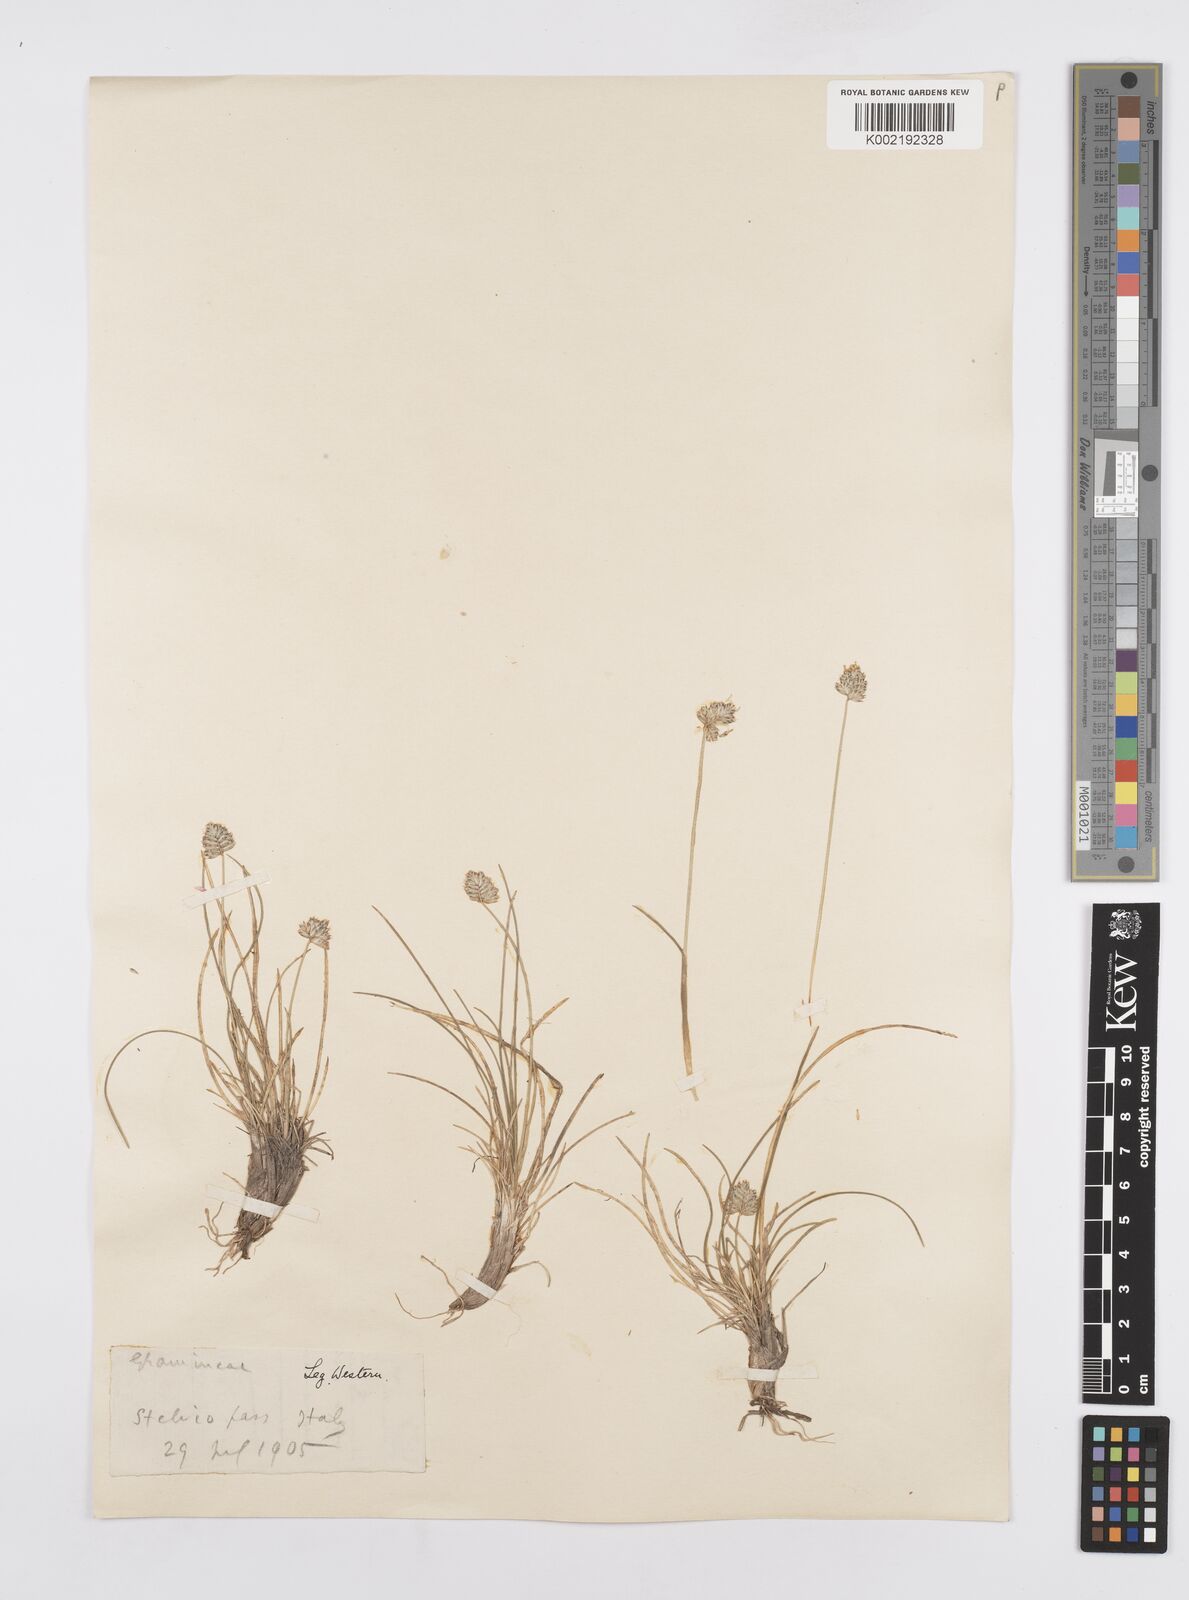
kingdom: Plantae
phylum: Tracheophyta
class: Liliopsida
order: Poales
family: Poaceae
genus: Oreochloa
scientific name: Oreochloa disticha
